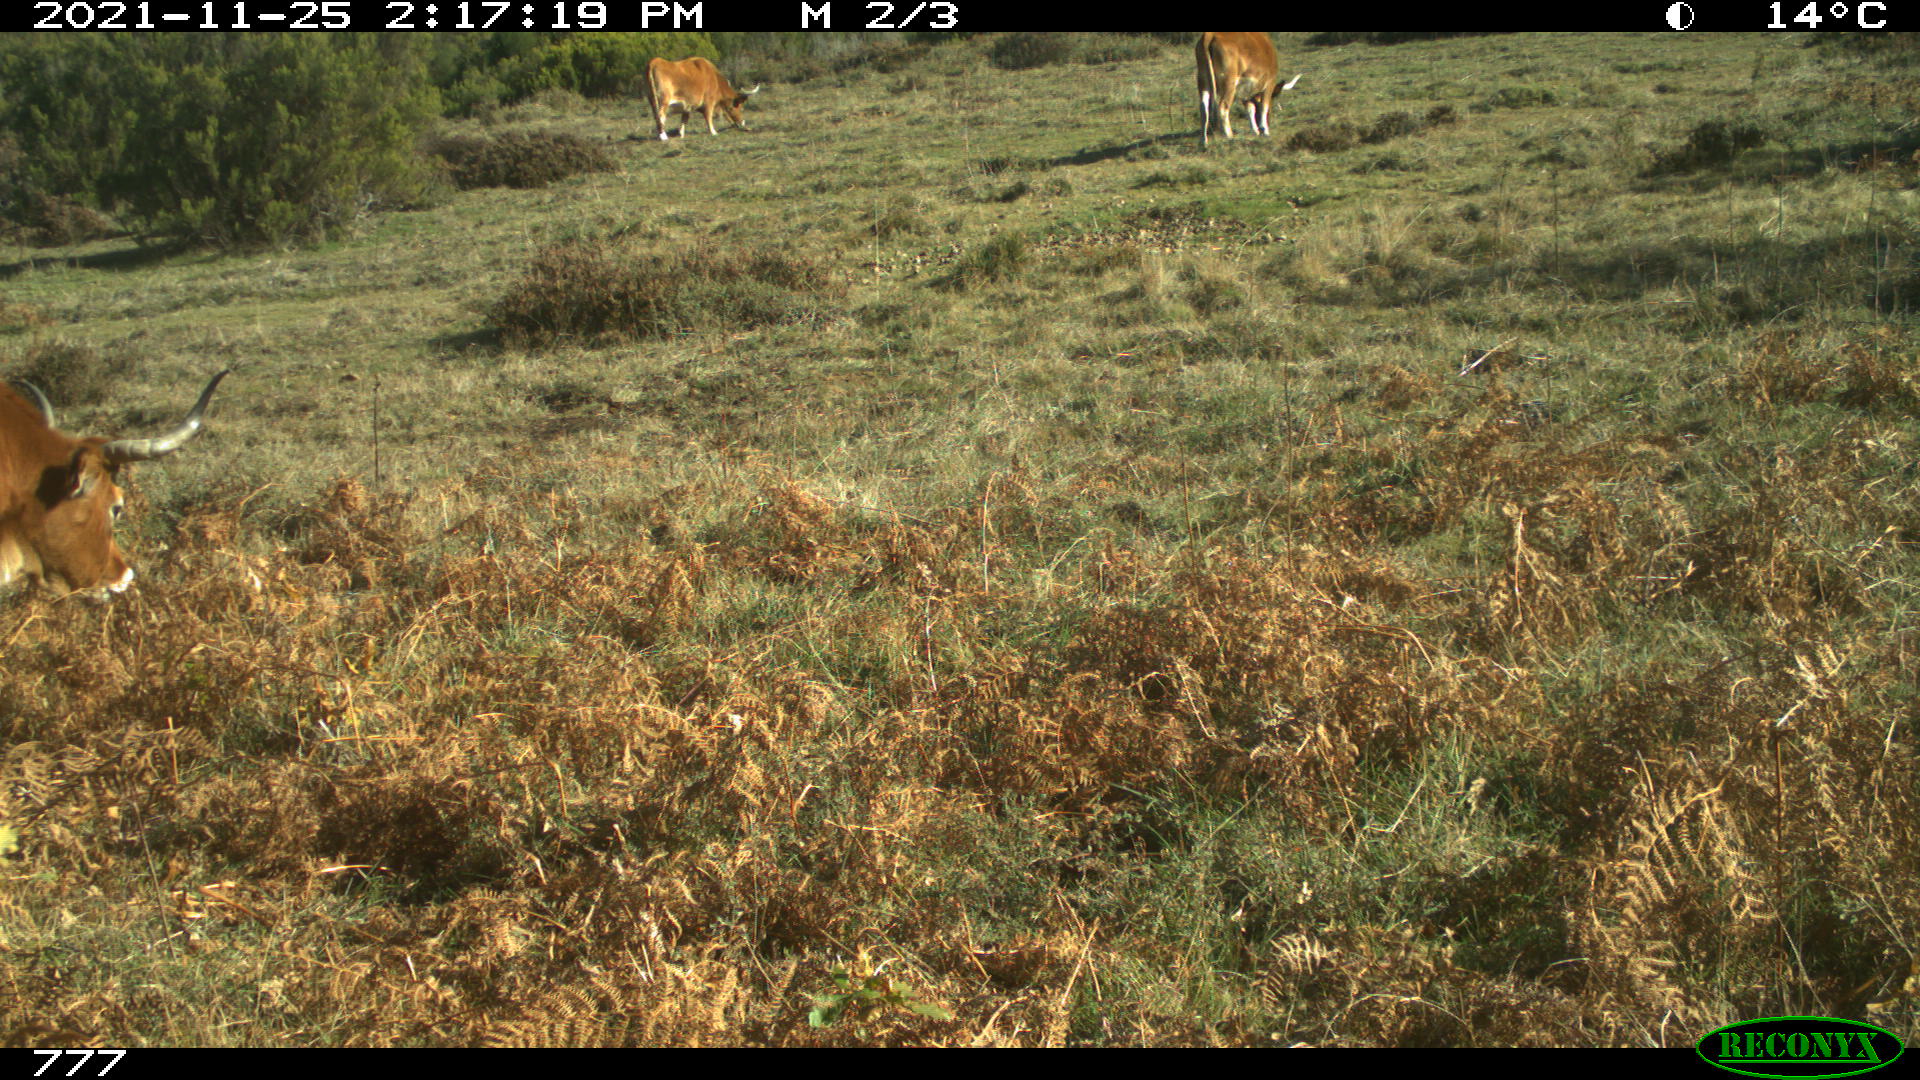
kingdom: Animalia
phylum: Chordata
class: Mammalia
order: Artiodactyla
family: Bovidae
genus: Bos
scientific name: Bos taurus
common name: Domesticated cattle
